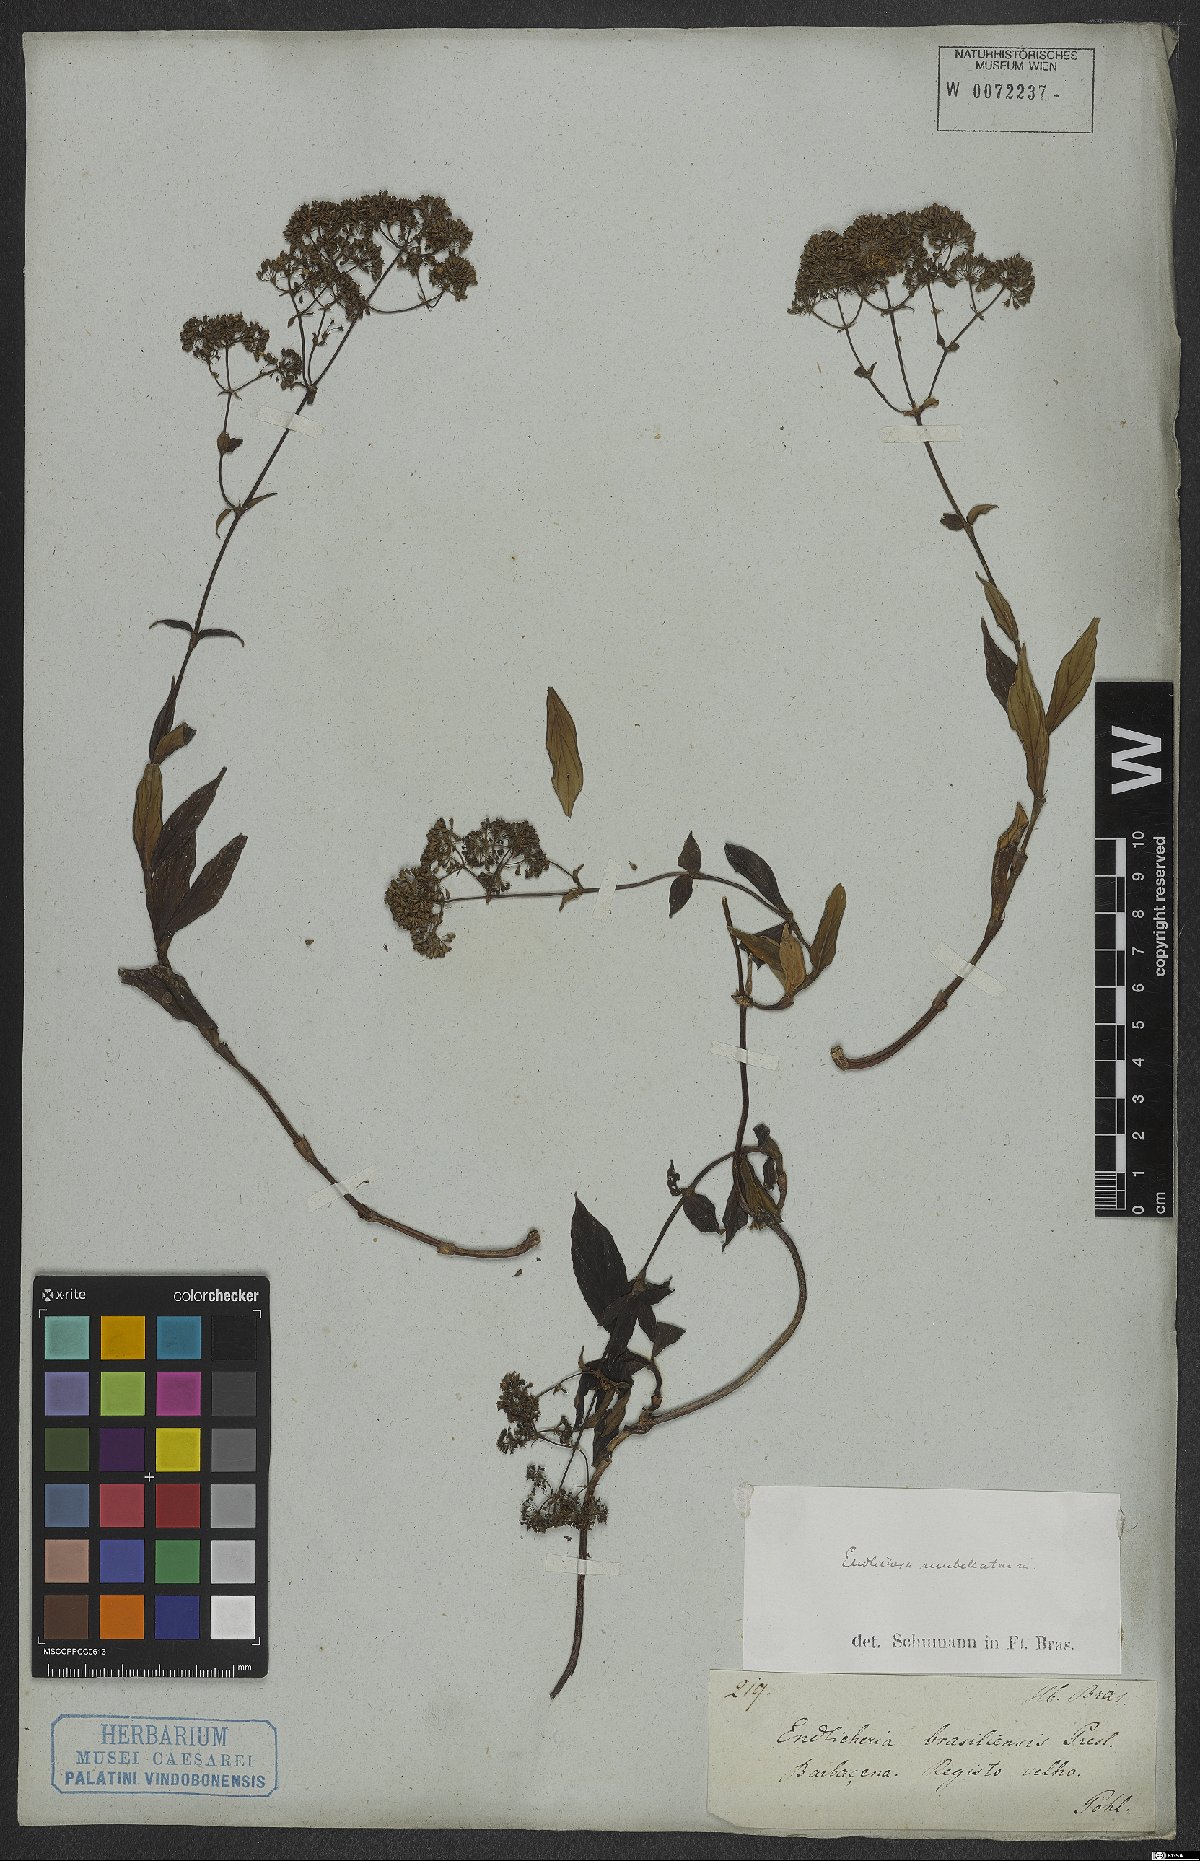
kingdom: Plantae
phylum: Tracheophyta
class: Magnoliopsida
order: Gentianales
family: Rubiaceae
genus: Emmeorhiza
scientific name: Emmeorhiza umbellata
